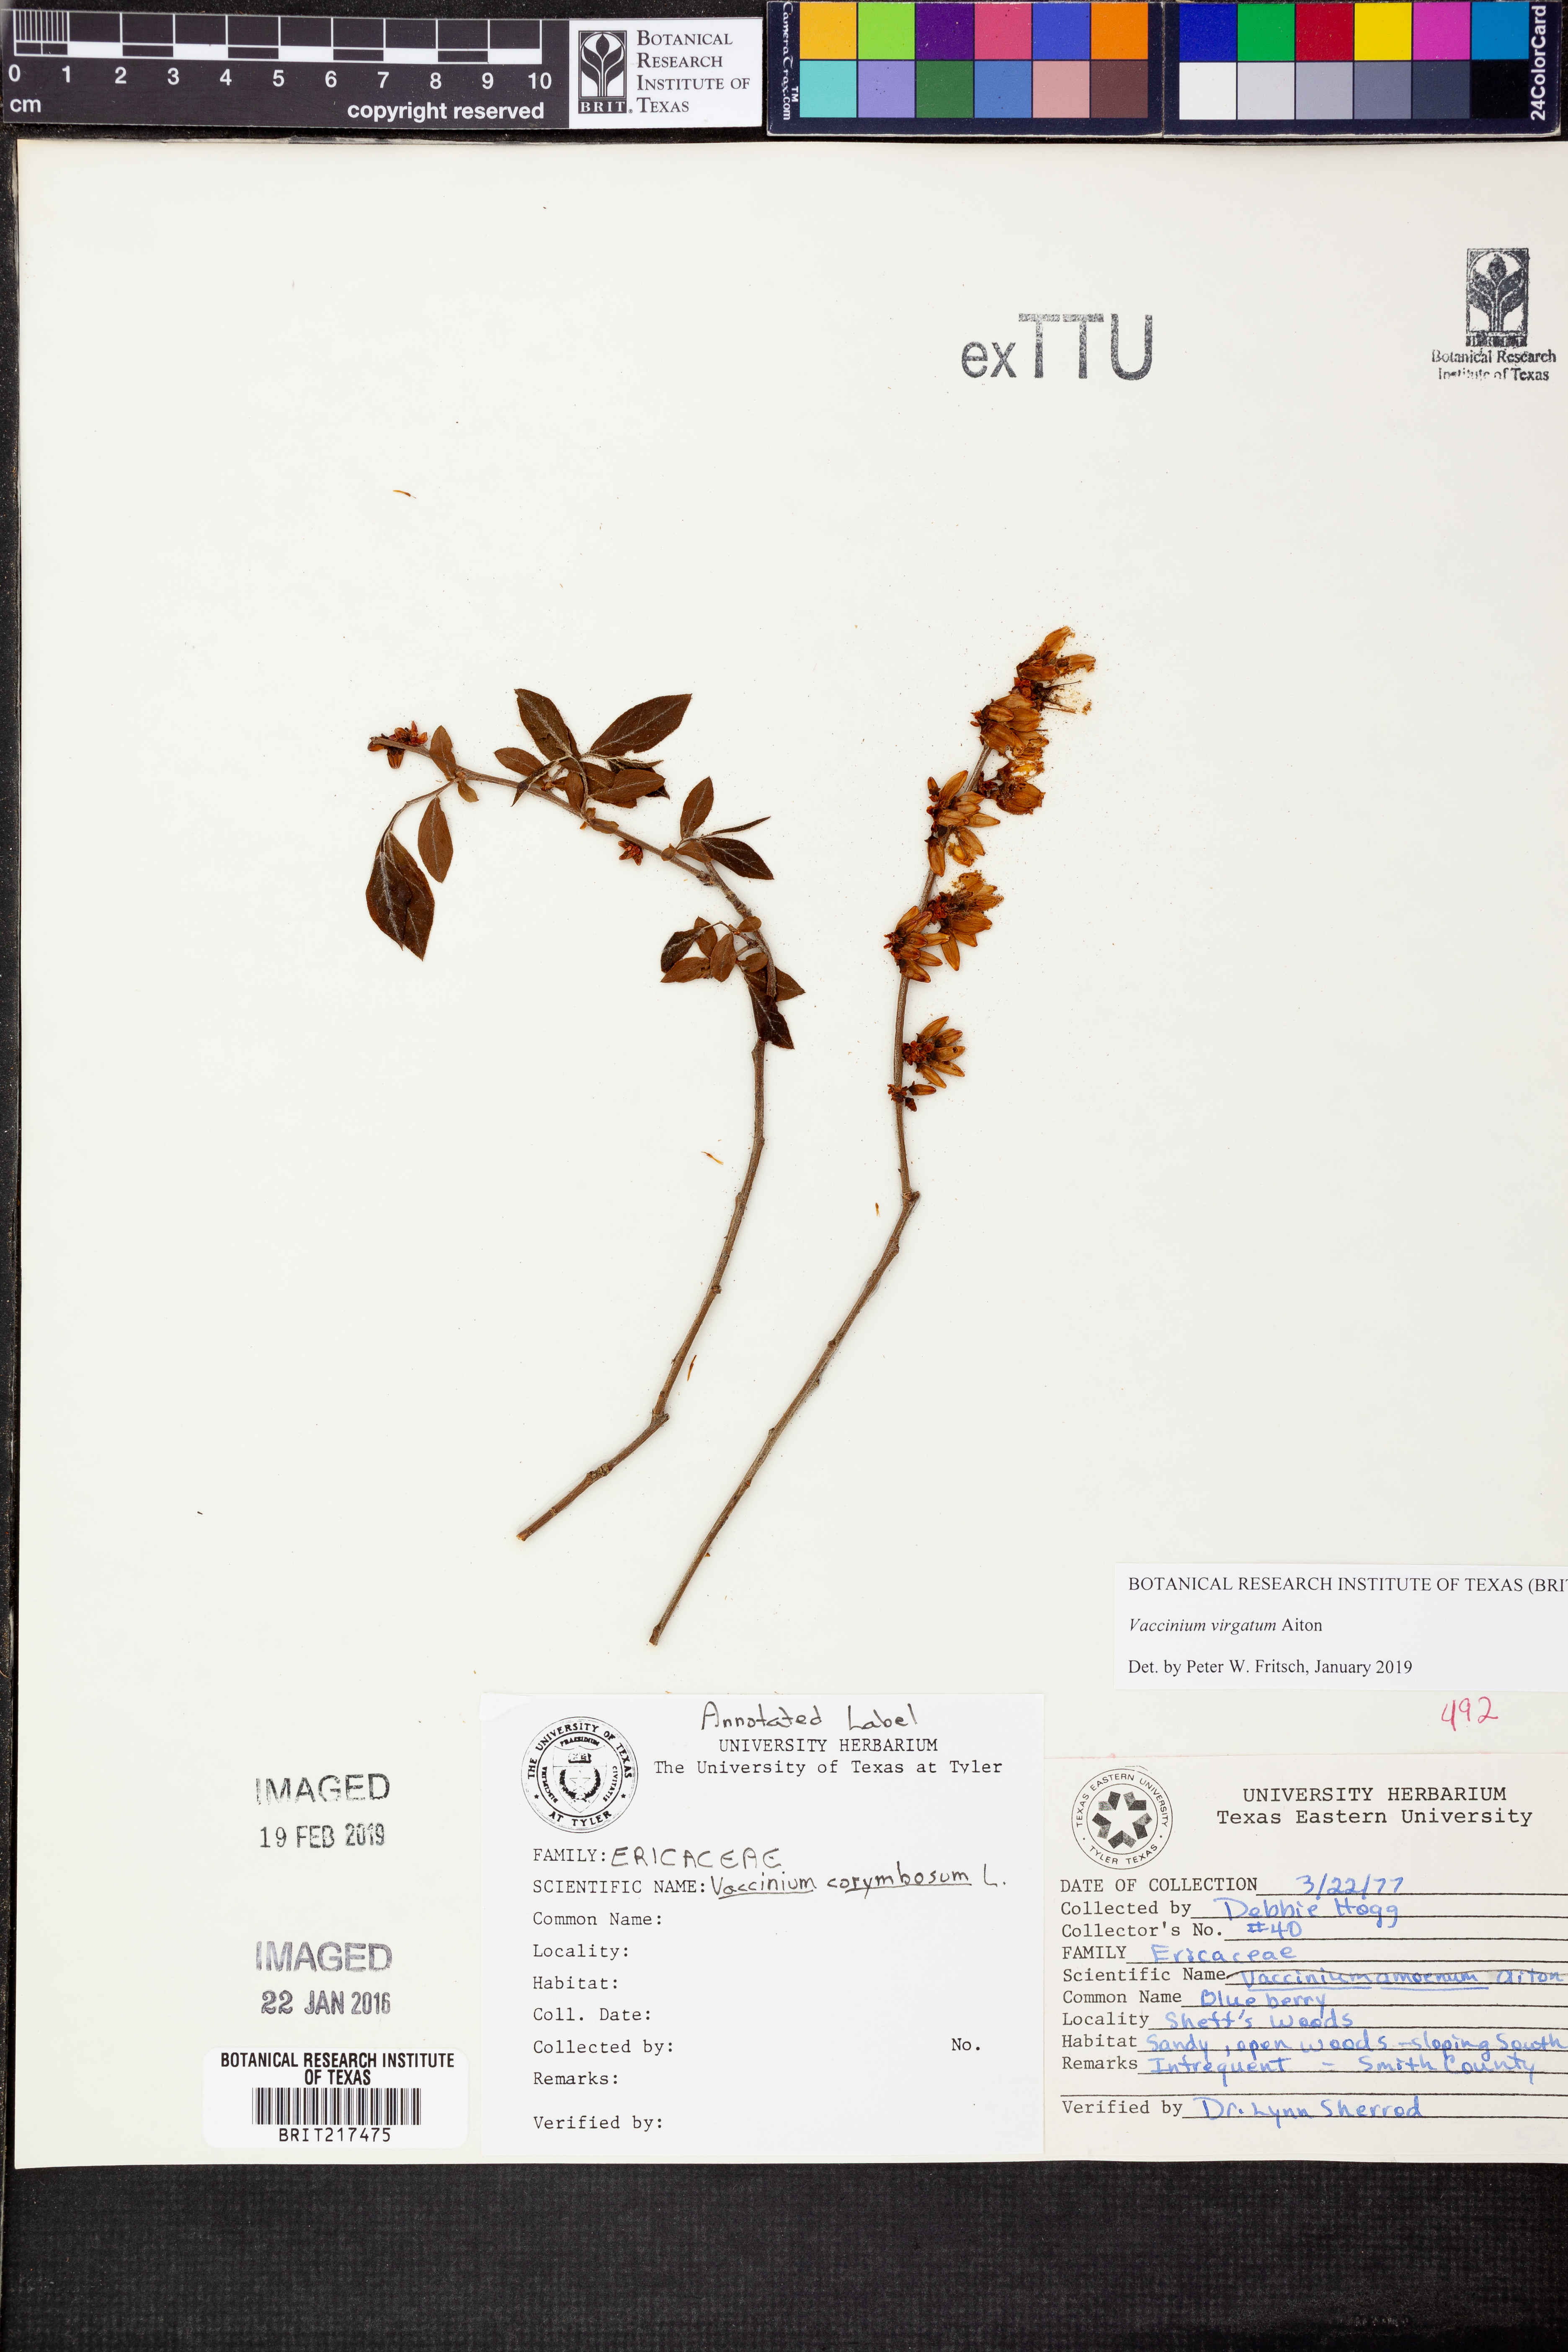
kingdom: Plantae
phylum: Tracheophyta
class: Magnoliopsida
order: Ericales
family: Ericaceae
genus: Vaccinium
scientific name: Vaccinium corymbosum
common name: Blueberry
